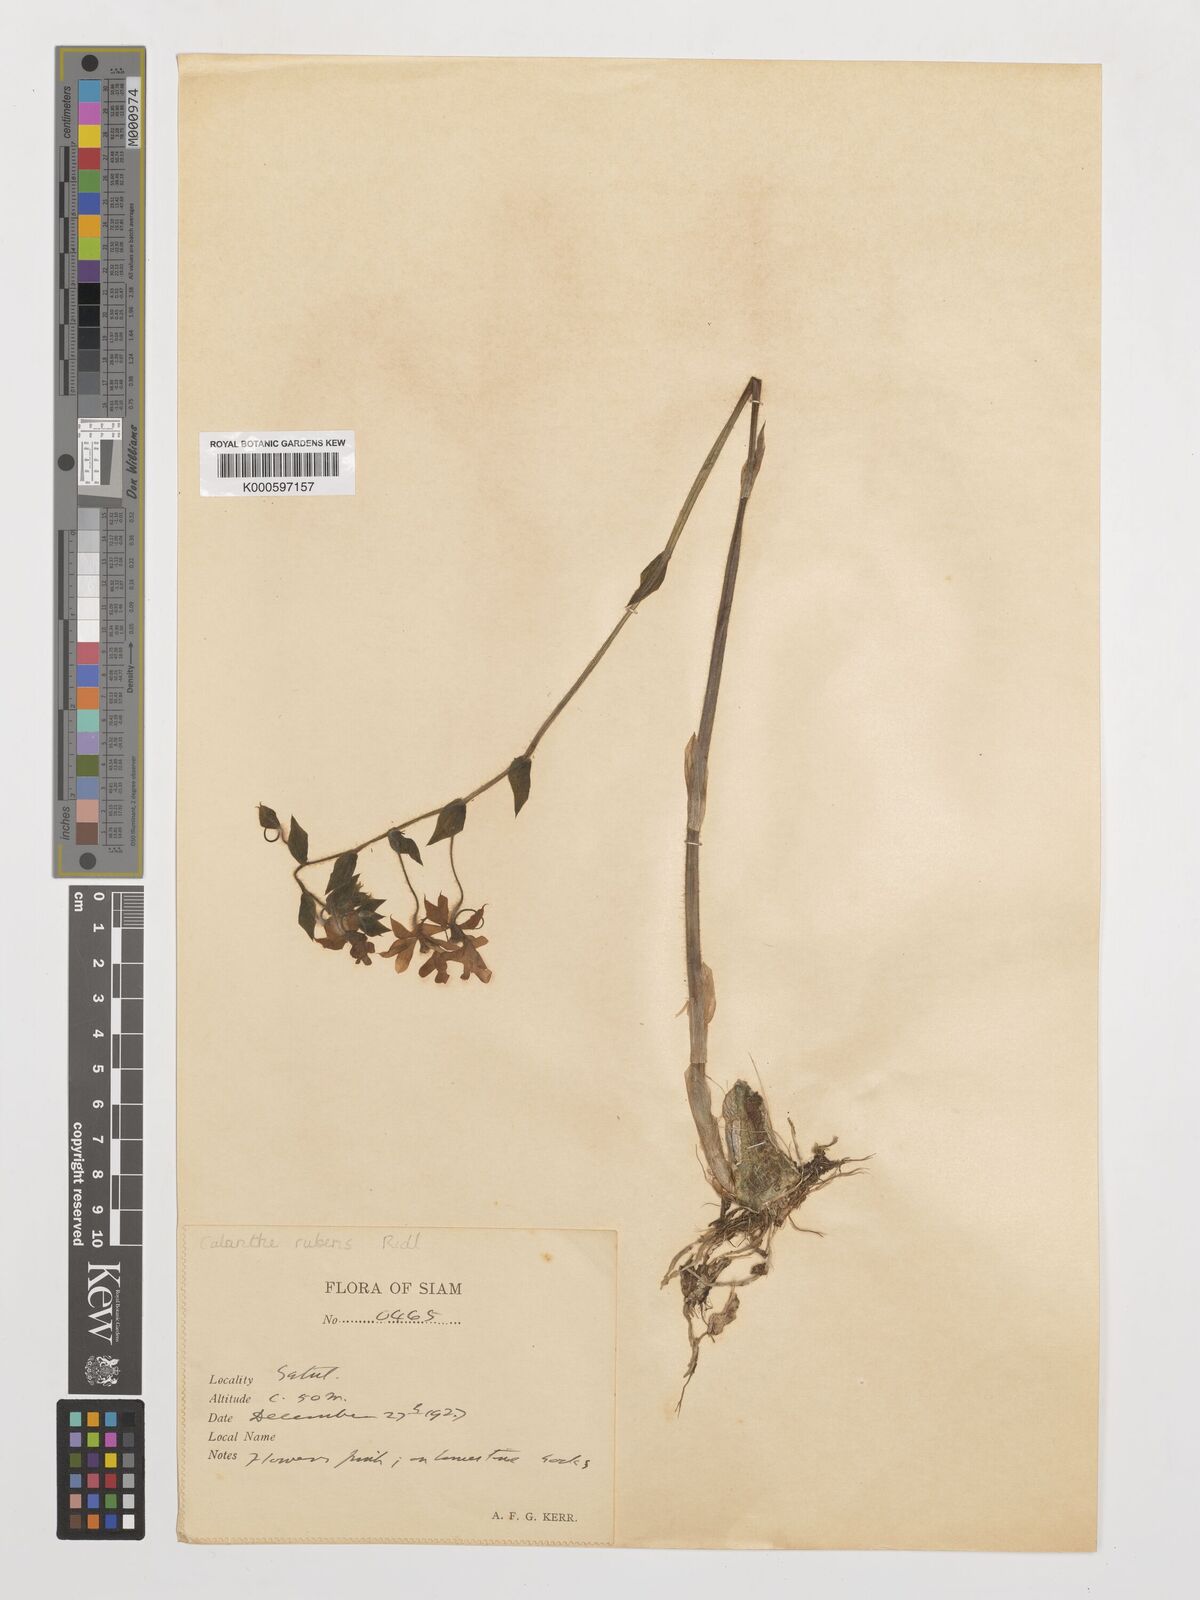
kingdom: Plantae
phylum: Tracheophyta
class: Liliopsida
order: Asparagales
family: Orchidaceae
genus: Calanthe
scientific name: Calanthe rubens
